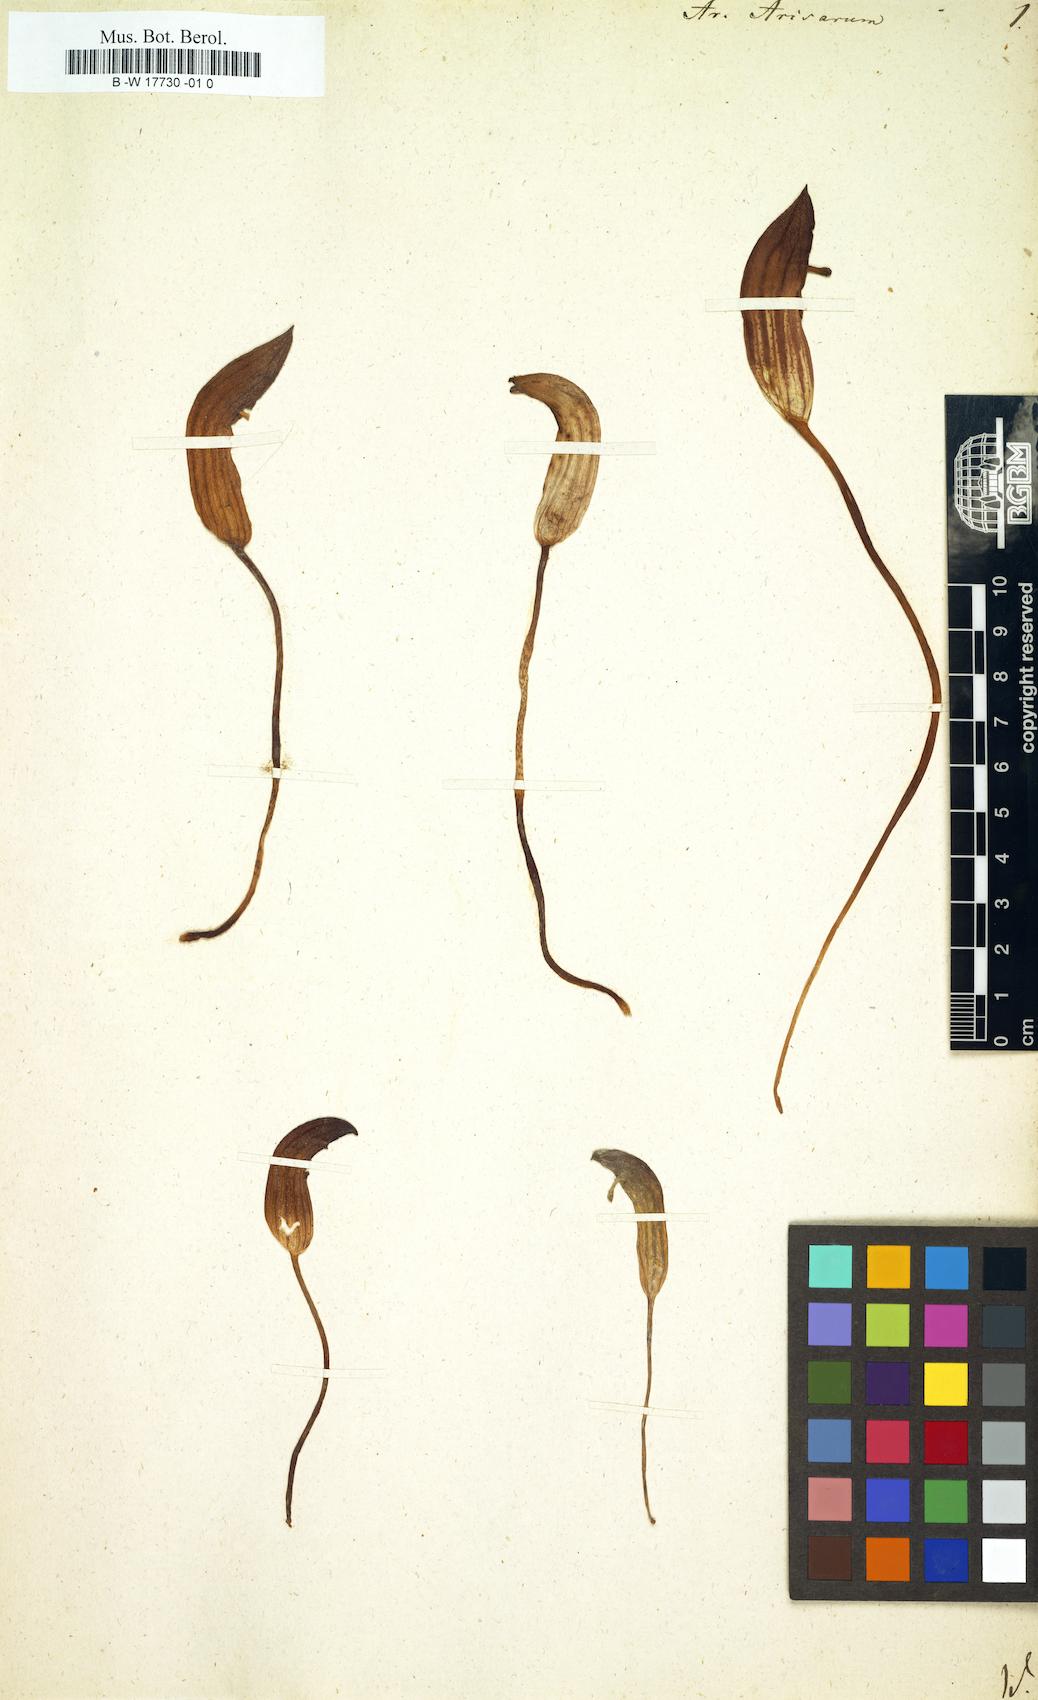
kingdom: Plantae
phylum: Tracheophyta
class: Liliopsida
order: Alismatales
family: Araceae
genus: Arisarum
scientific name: Arisarum vulgare
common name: Common arisarum
